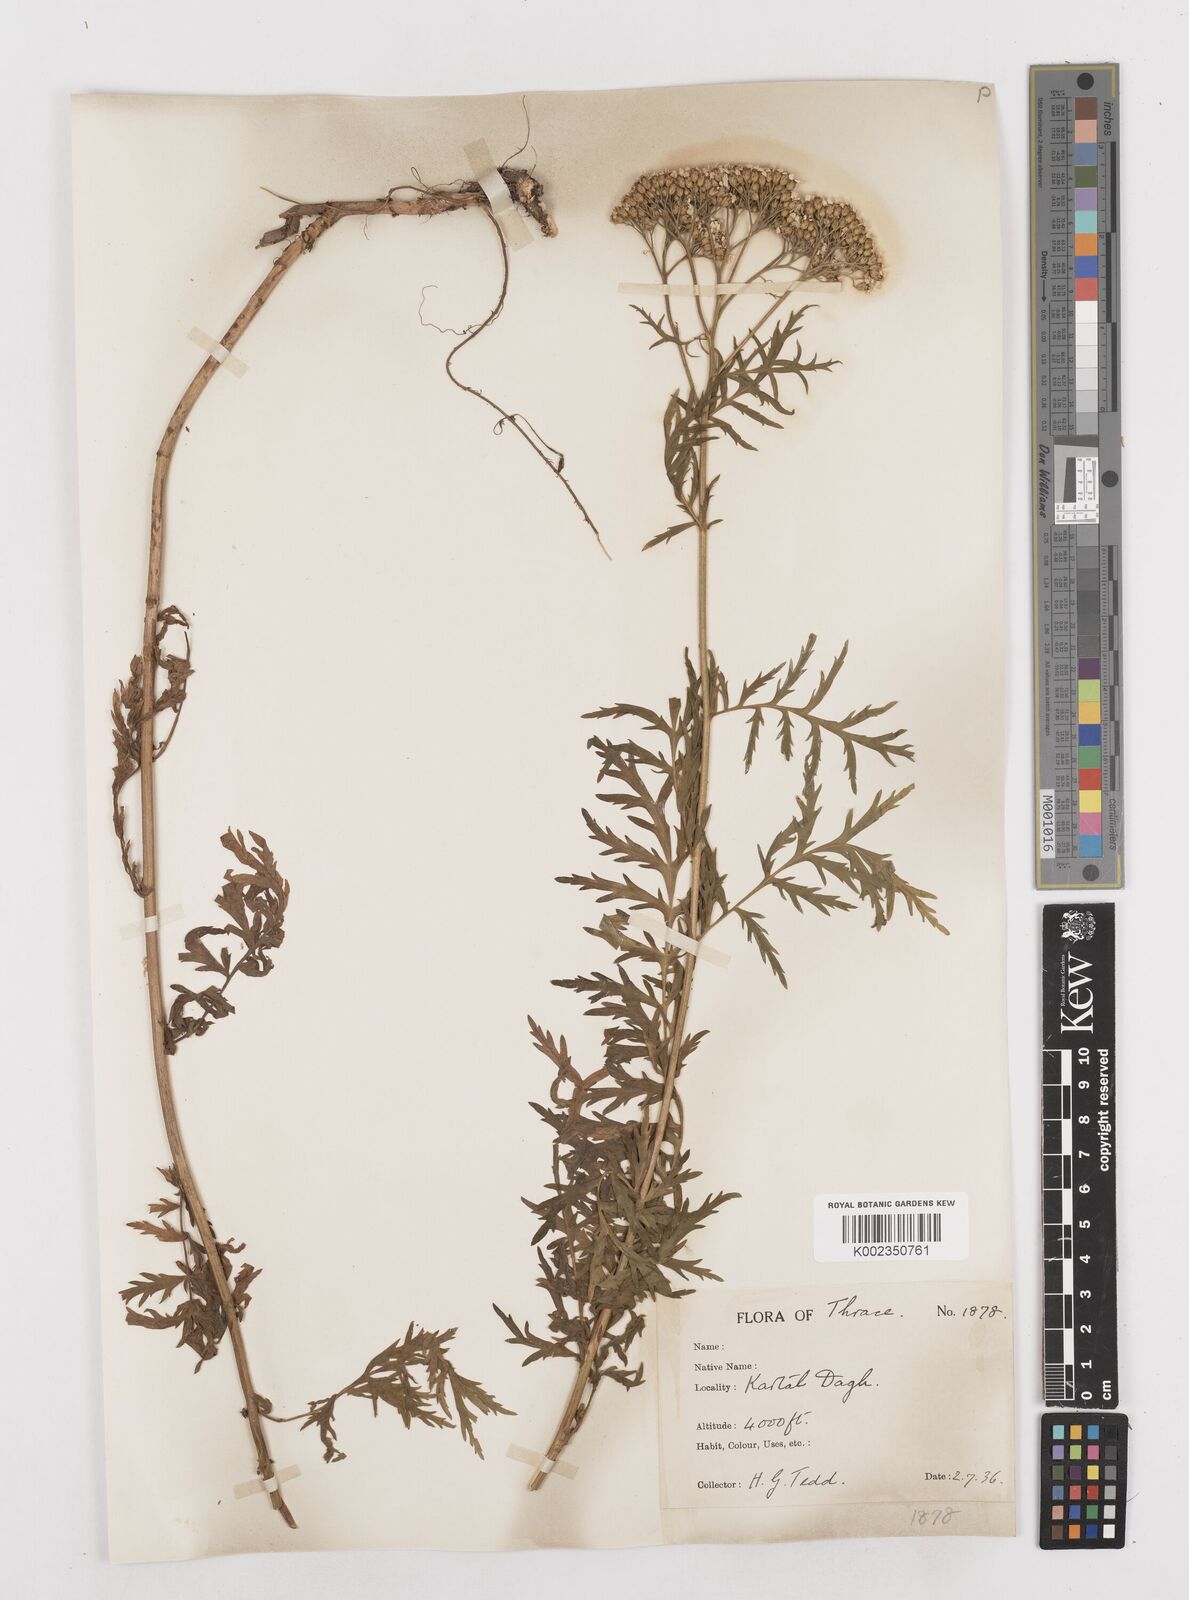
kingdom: Plantae
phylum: Tracheophyta
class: Magnoliopsida
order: Asterales
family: Asteraceae
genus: Achillea
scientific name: Achillea grandifolia
